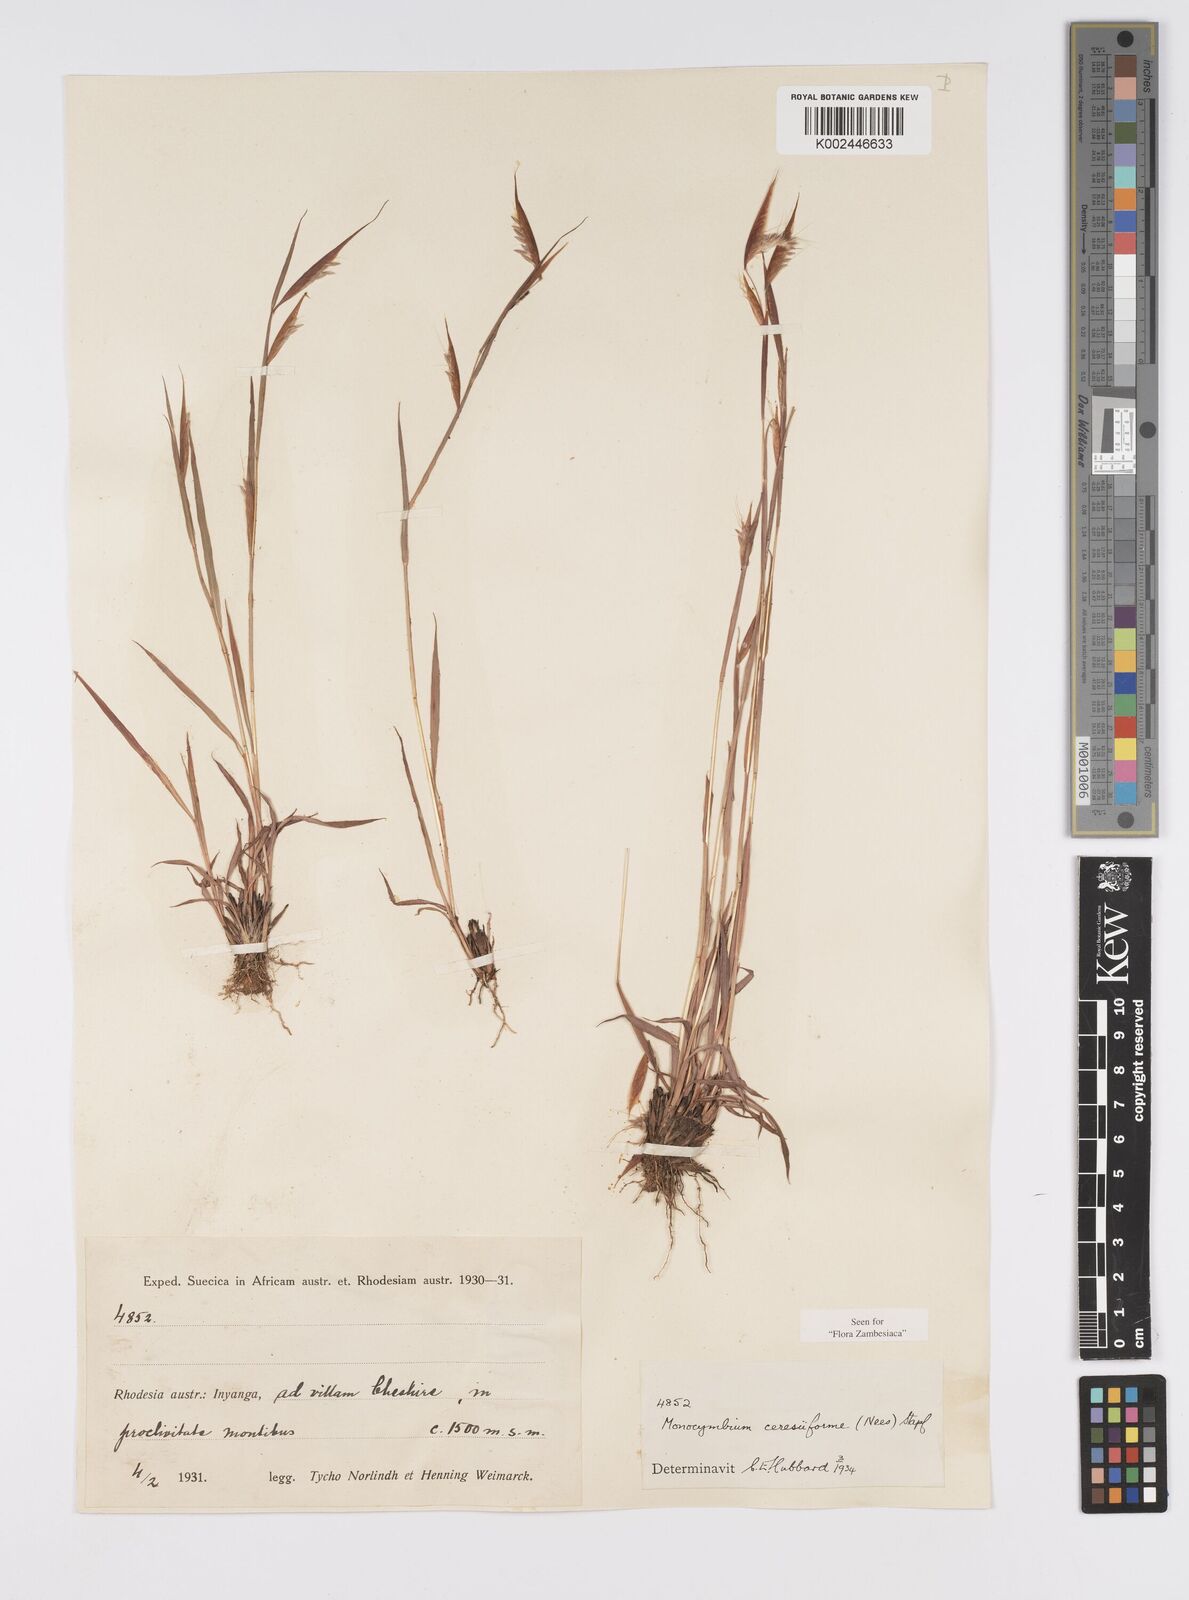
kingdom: Plantae
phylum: Tracheophyta
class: Liliopsida
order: Poales
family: Poaceae
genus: Monocymbium
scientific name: Monocymbium ceresiiforme
